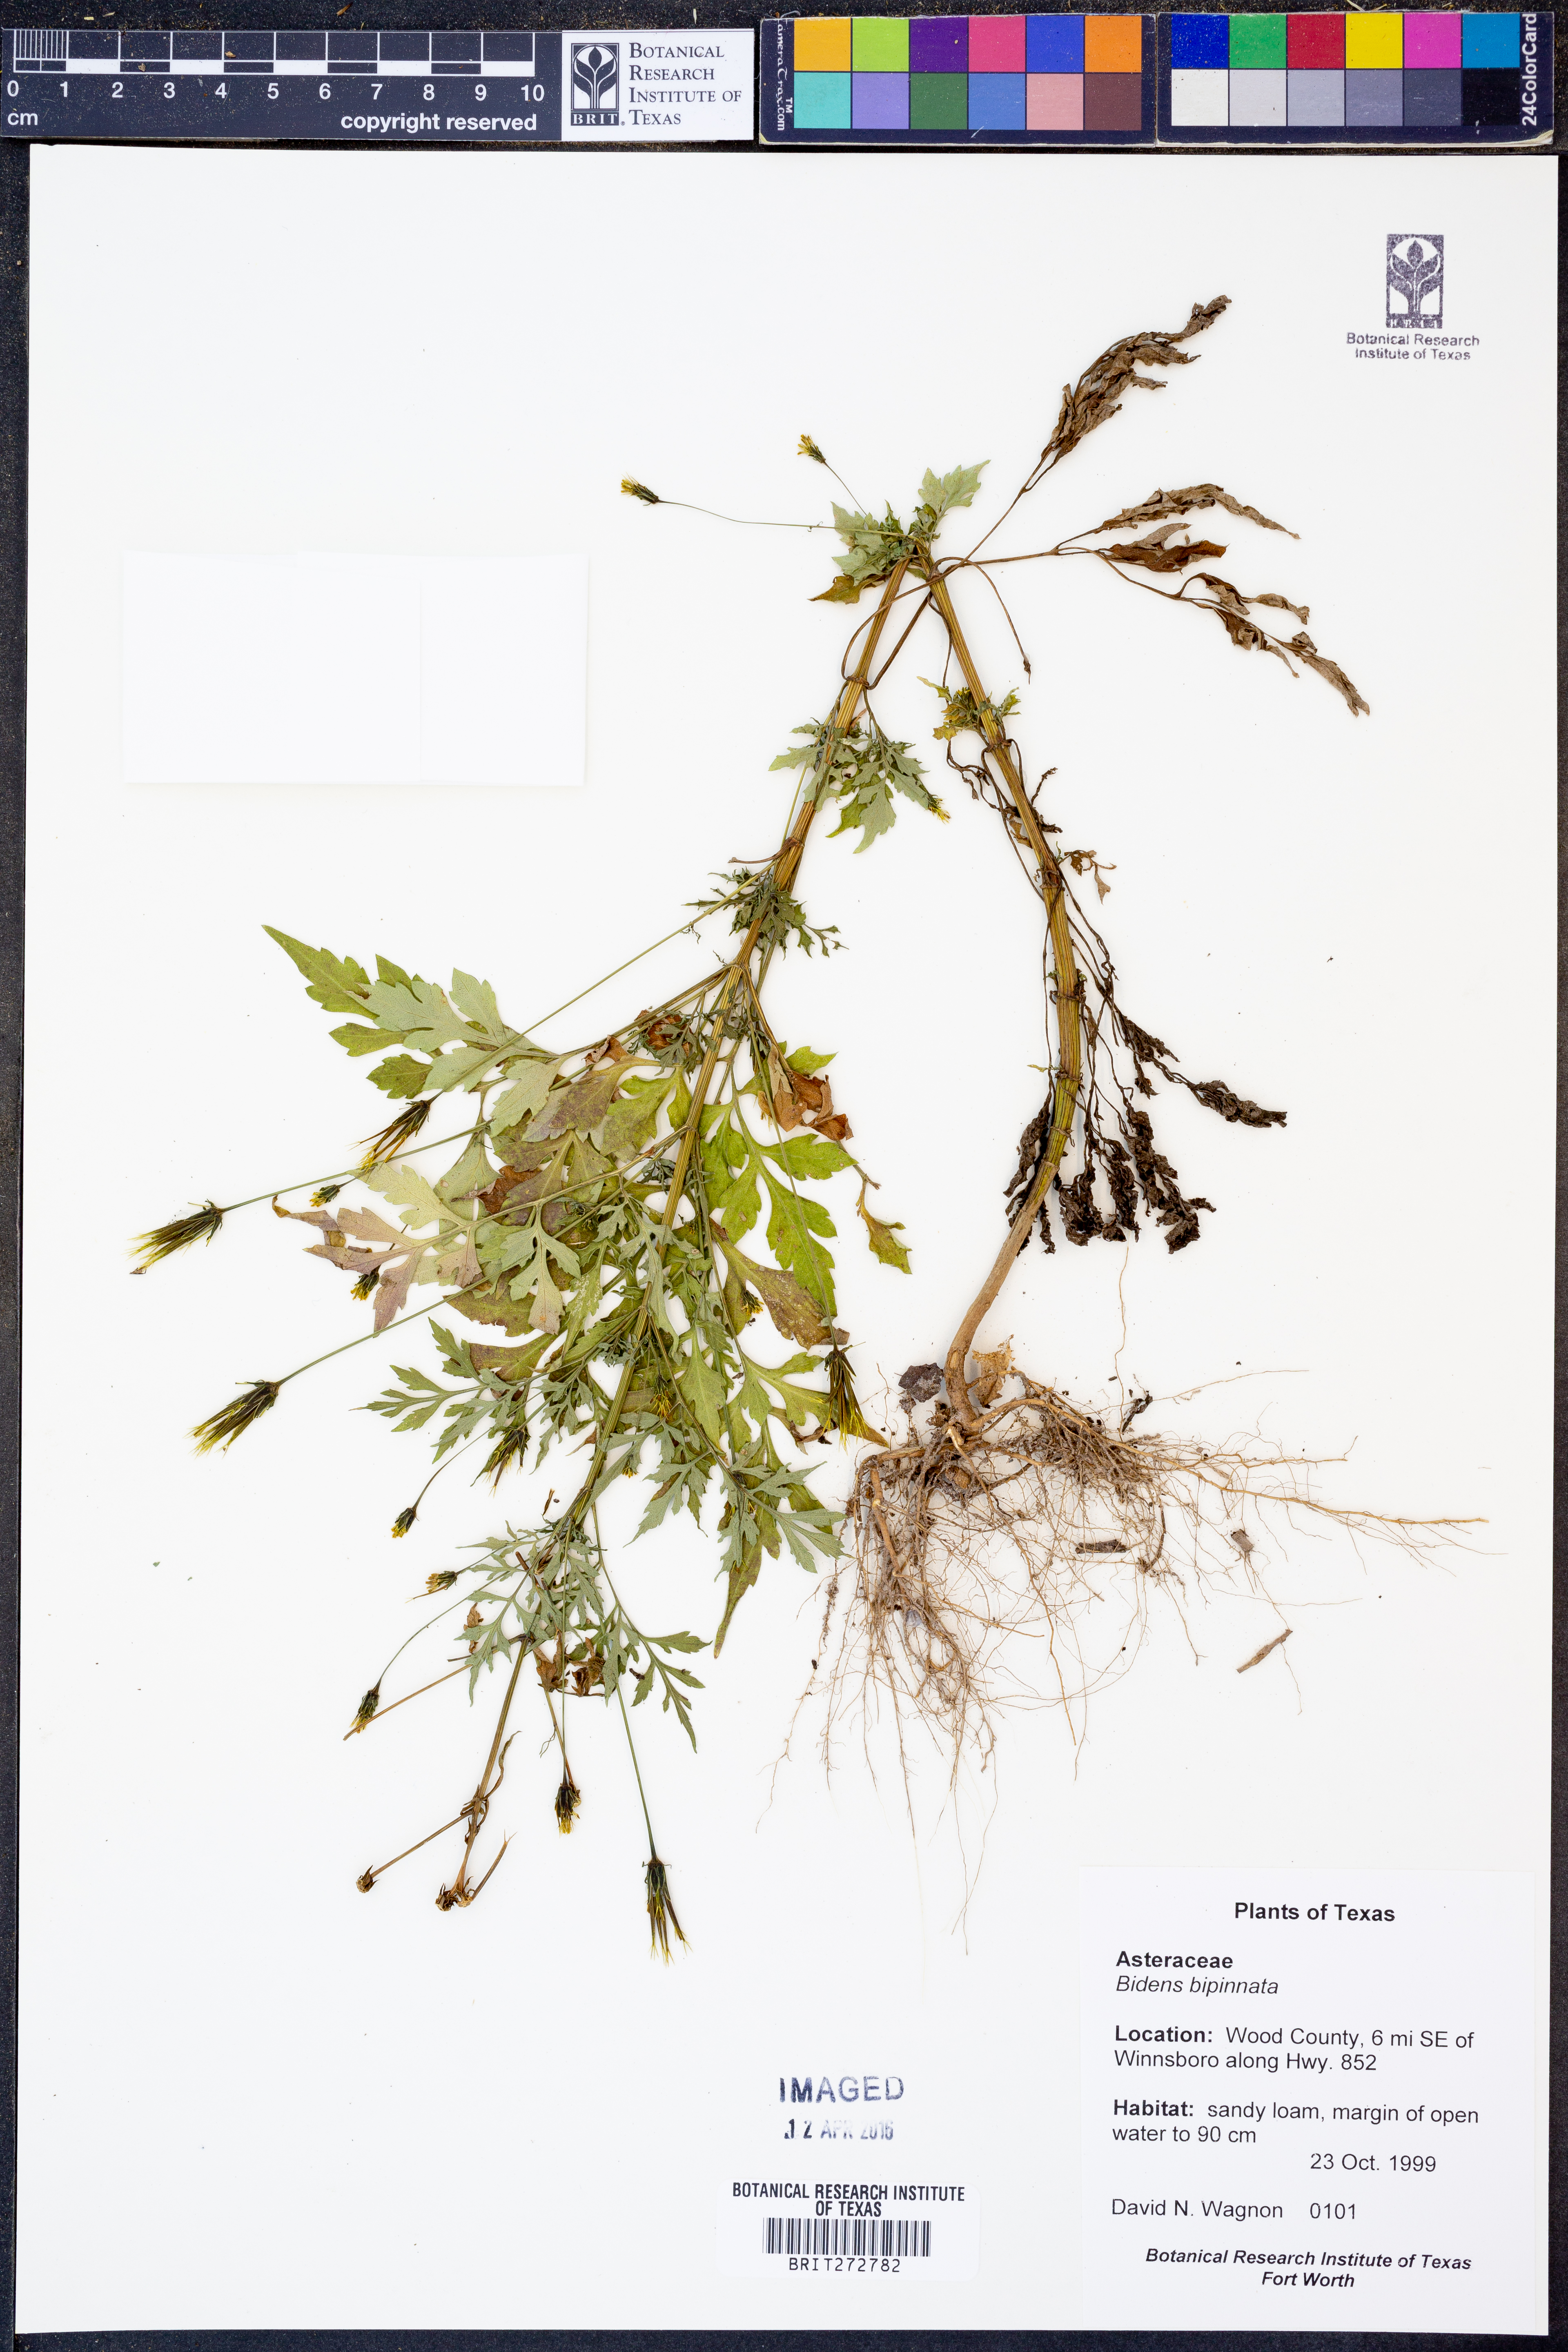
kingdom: Plantae
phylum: Tracheophyta
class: Magnoliopsida
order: Asterales
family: Asteraceae
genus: Bidens
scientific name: Bidens bipinnata
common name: Spanish-needles
